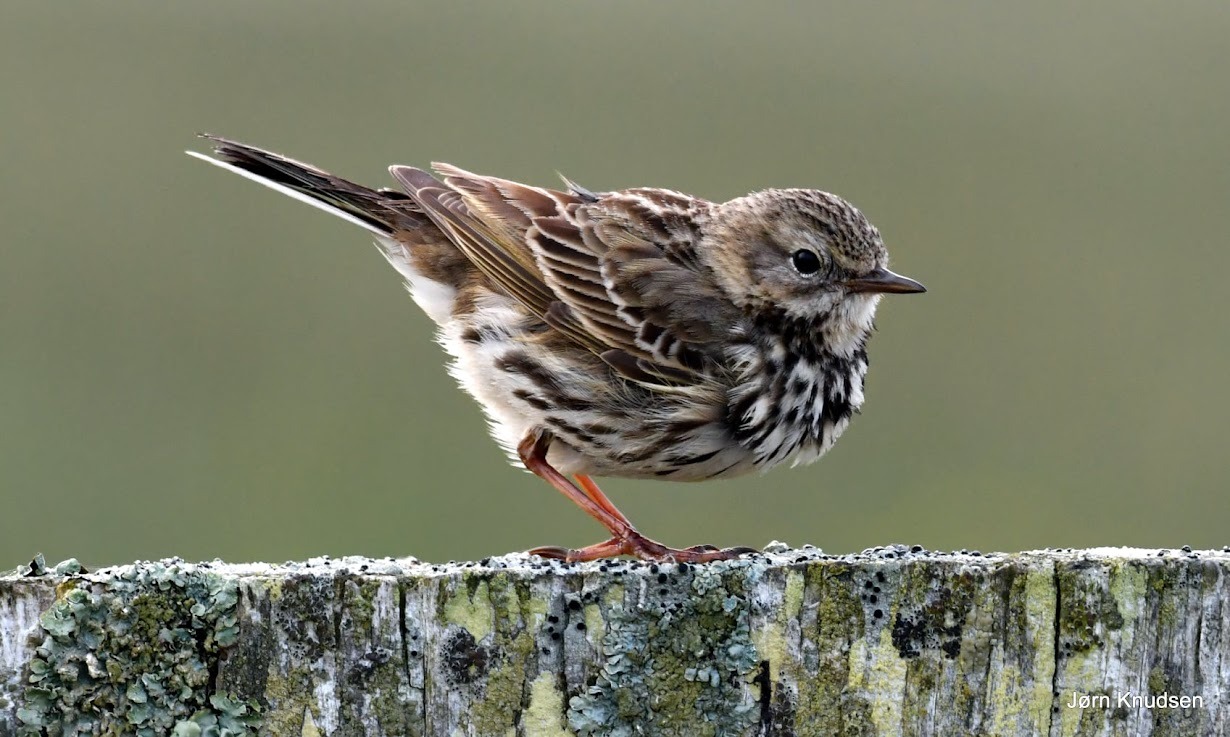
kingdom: Animalia
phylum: Chordata
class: Aves
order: Passeriformes
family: Motacillidae
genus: Anthus
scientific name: Anthus pratensis
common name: Engpiber
